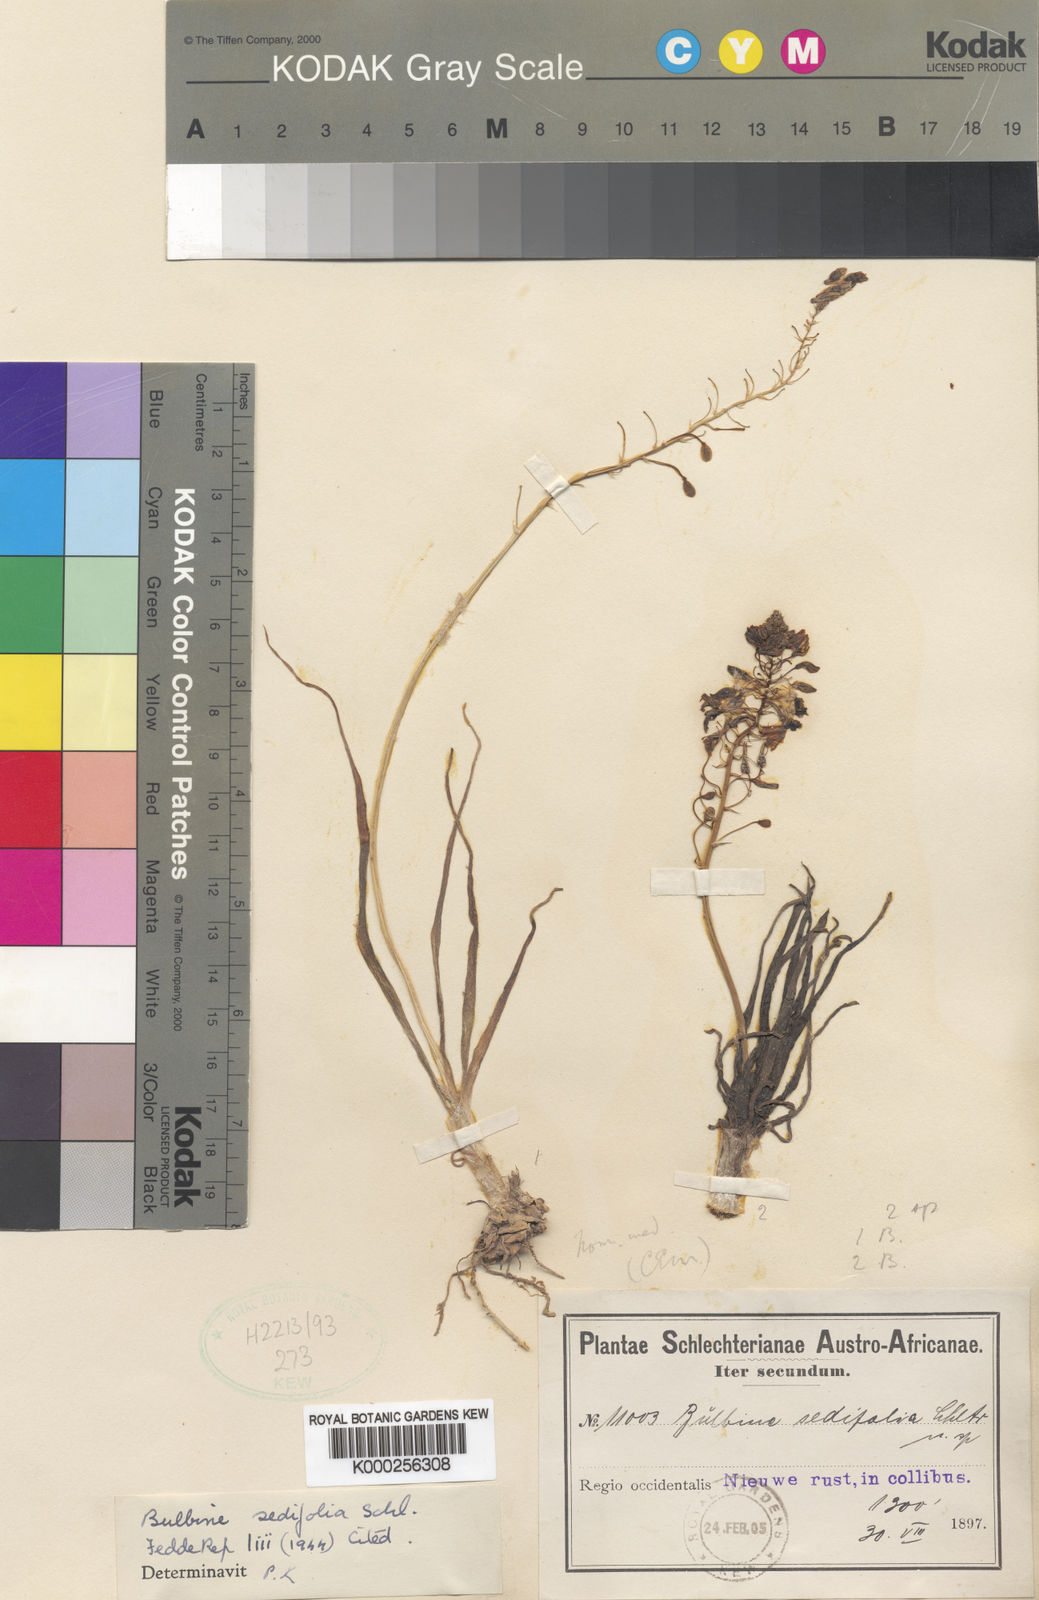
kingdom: Plantae
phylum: Tracheophyta
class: Liliopsida
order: Asparagales
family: Asphodelaceae
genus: Bulbine
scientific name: Bulbine
